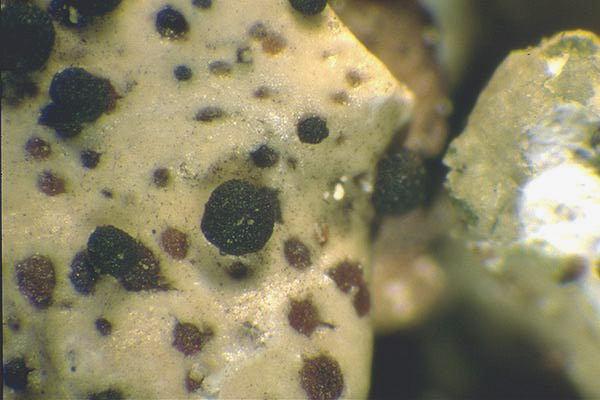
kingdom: Fungi
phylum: Ascomycota
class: Lecanoromycetes
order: Lecanorales
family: Parmeliaceae
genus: Punctelia
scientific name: Punctelia oxyspora
